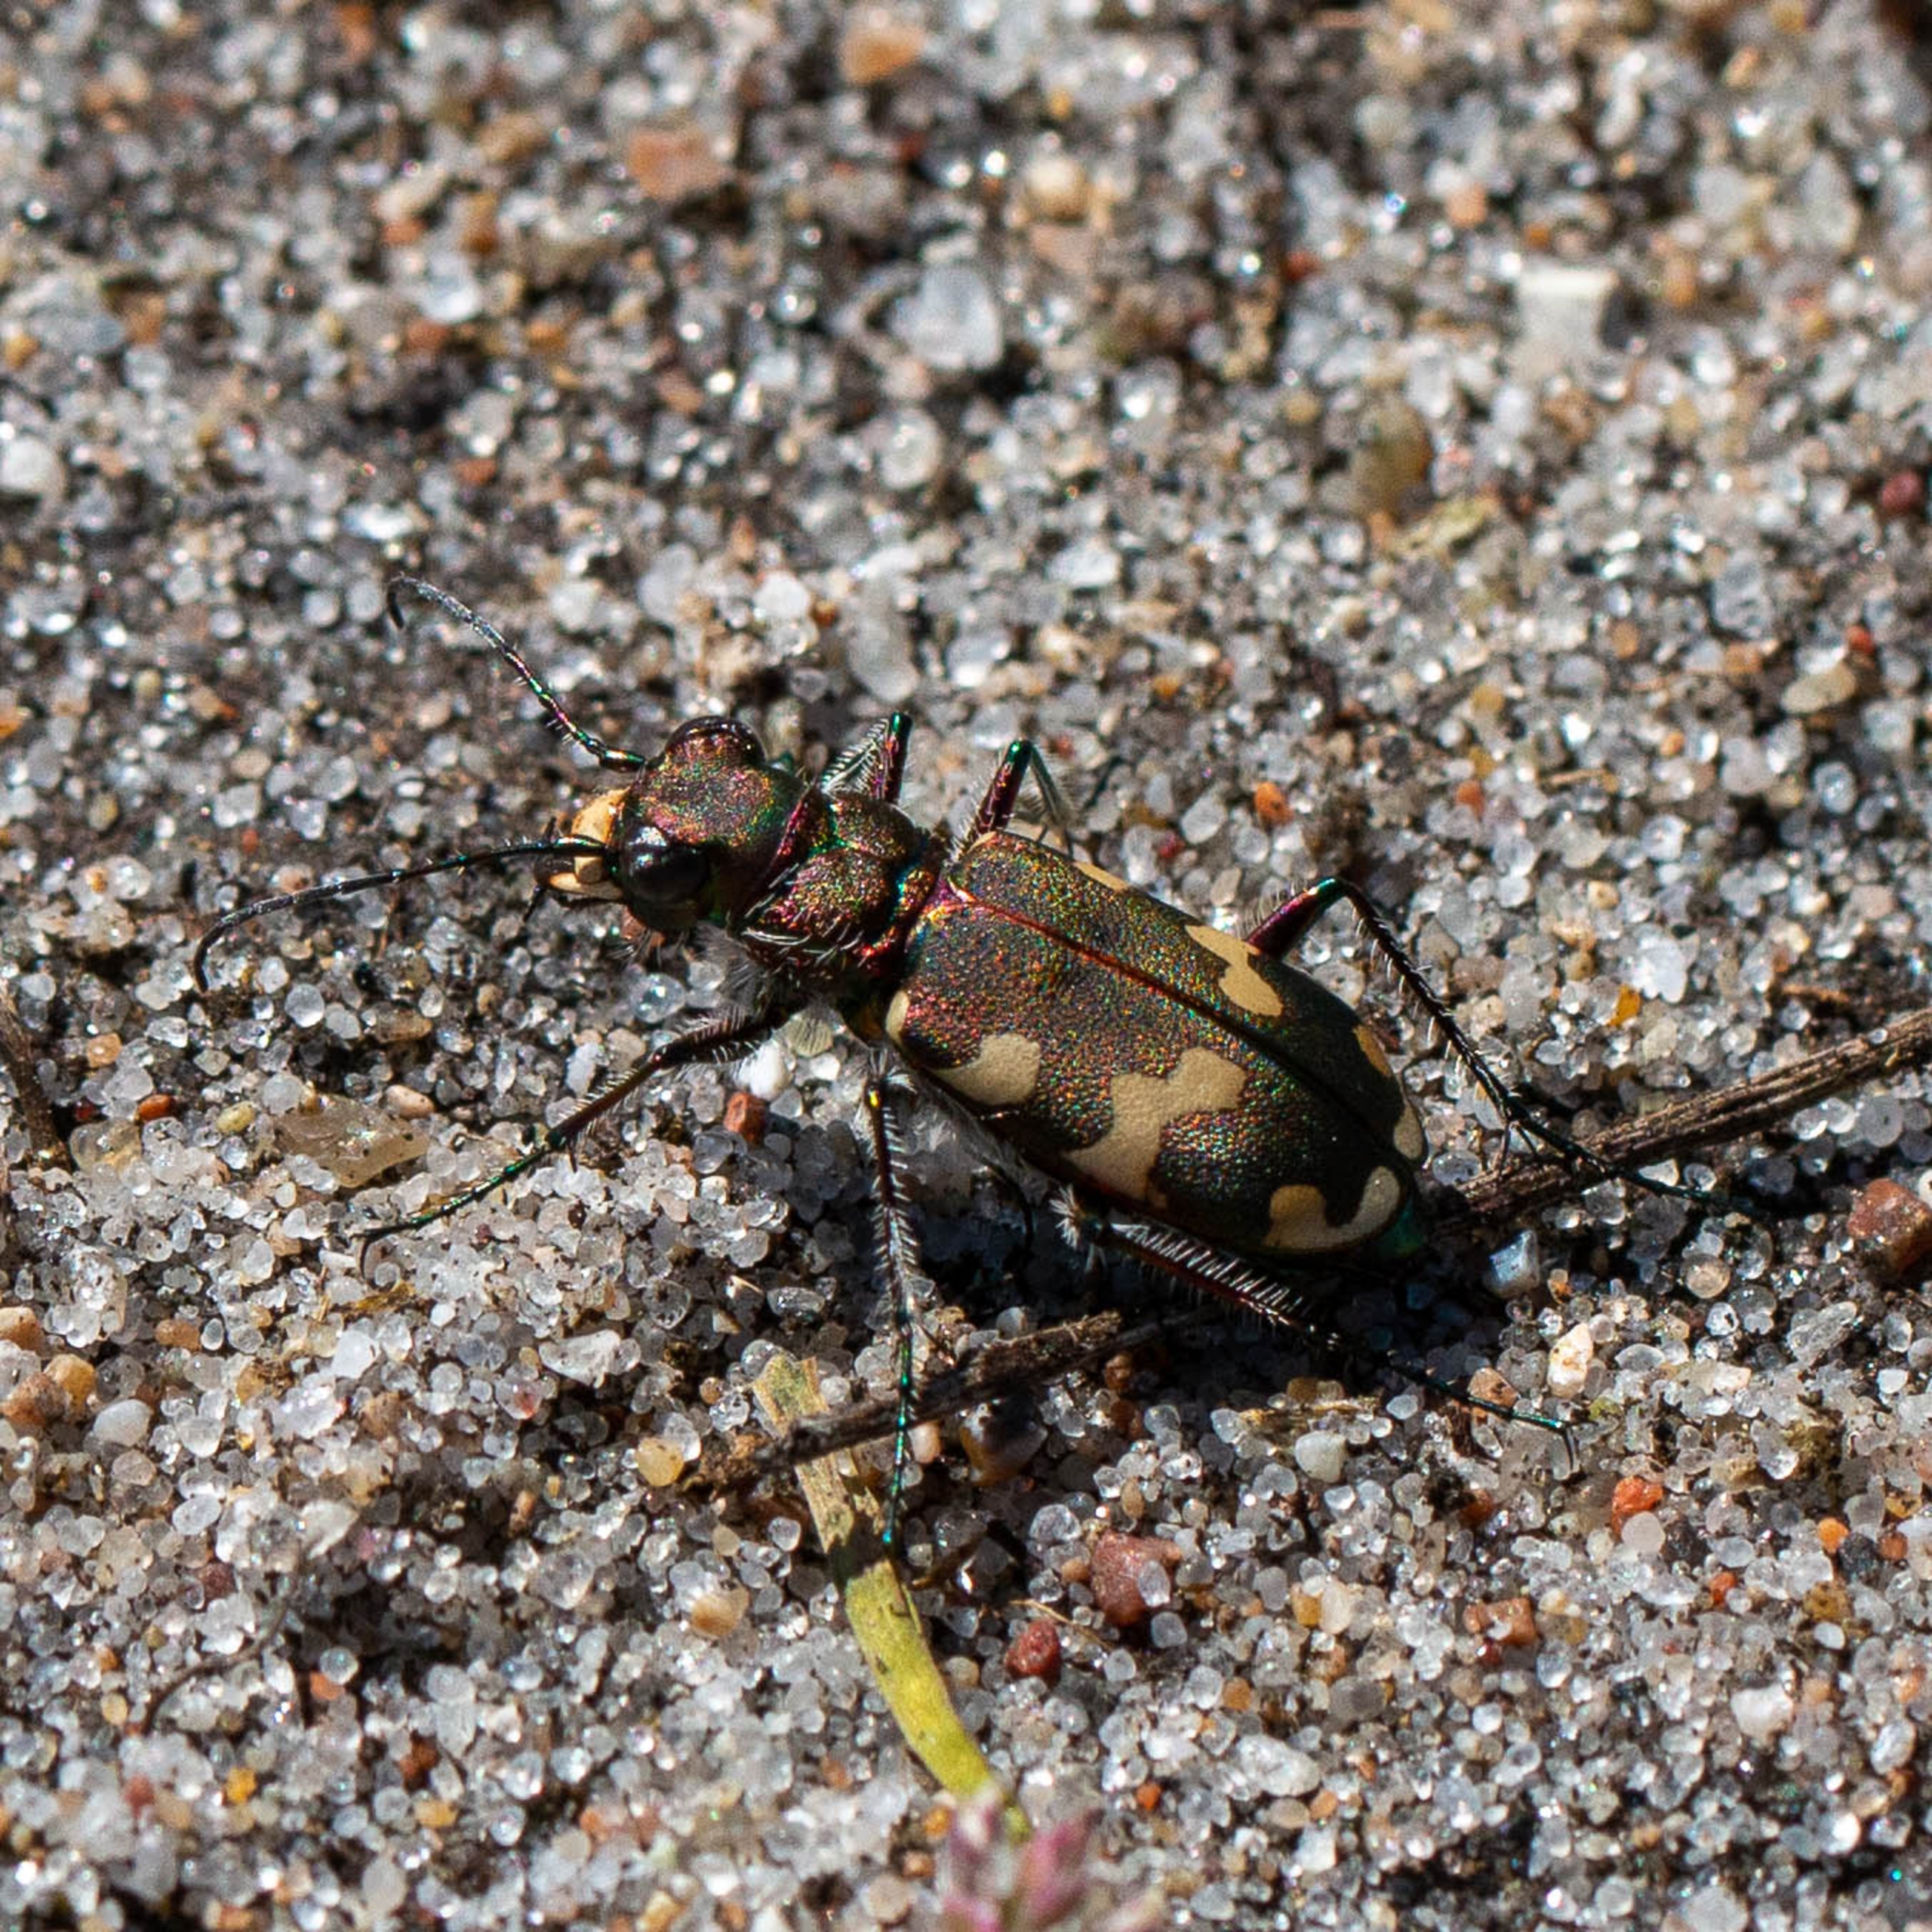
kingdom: Animalia
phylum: Arthropoda
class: Insecta
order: Coleoptera
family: Carabidae
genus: Cicindela
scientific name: Cicindela hybrida
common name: Brun sandspringer
